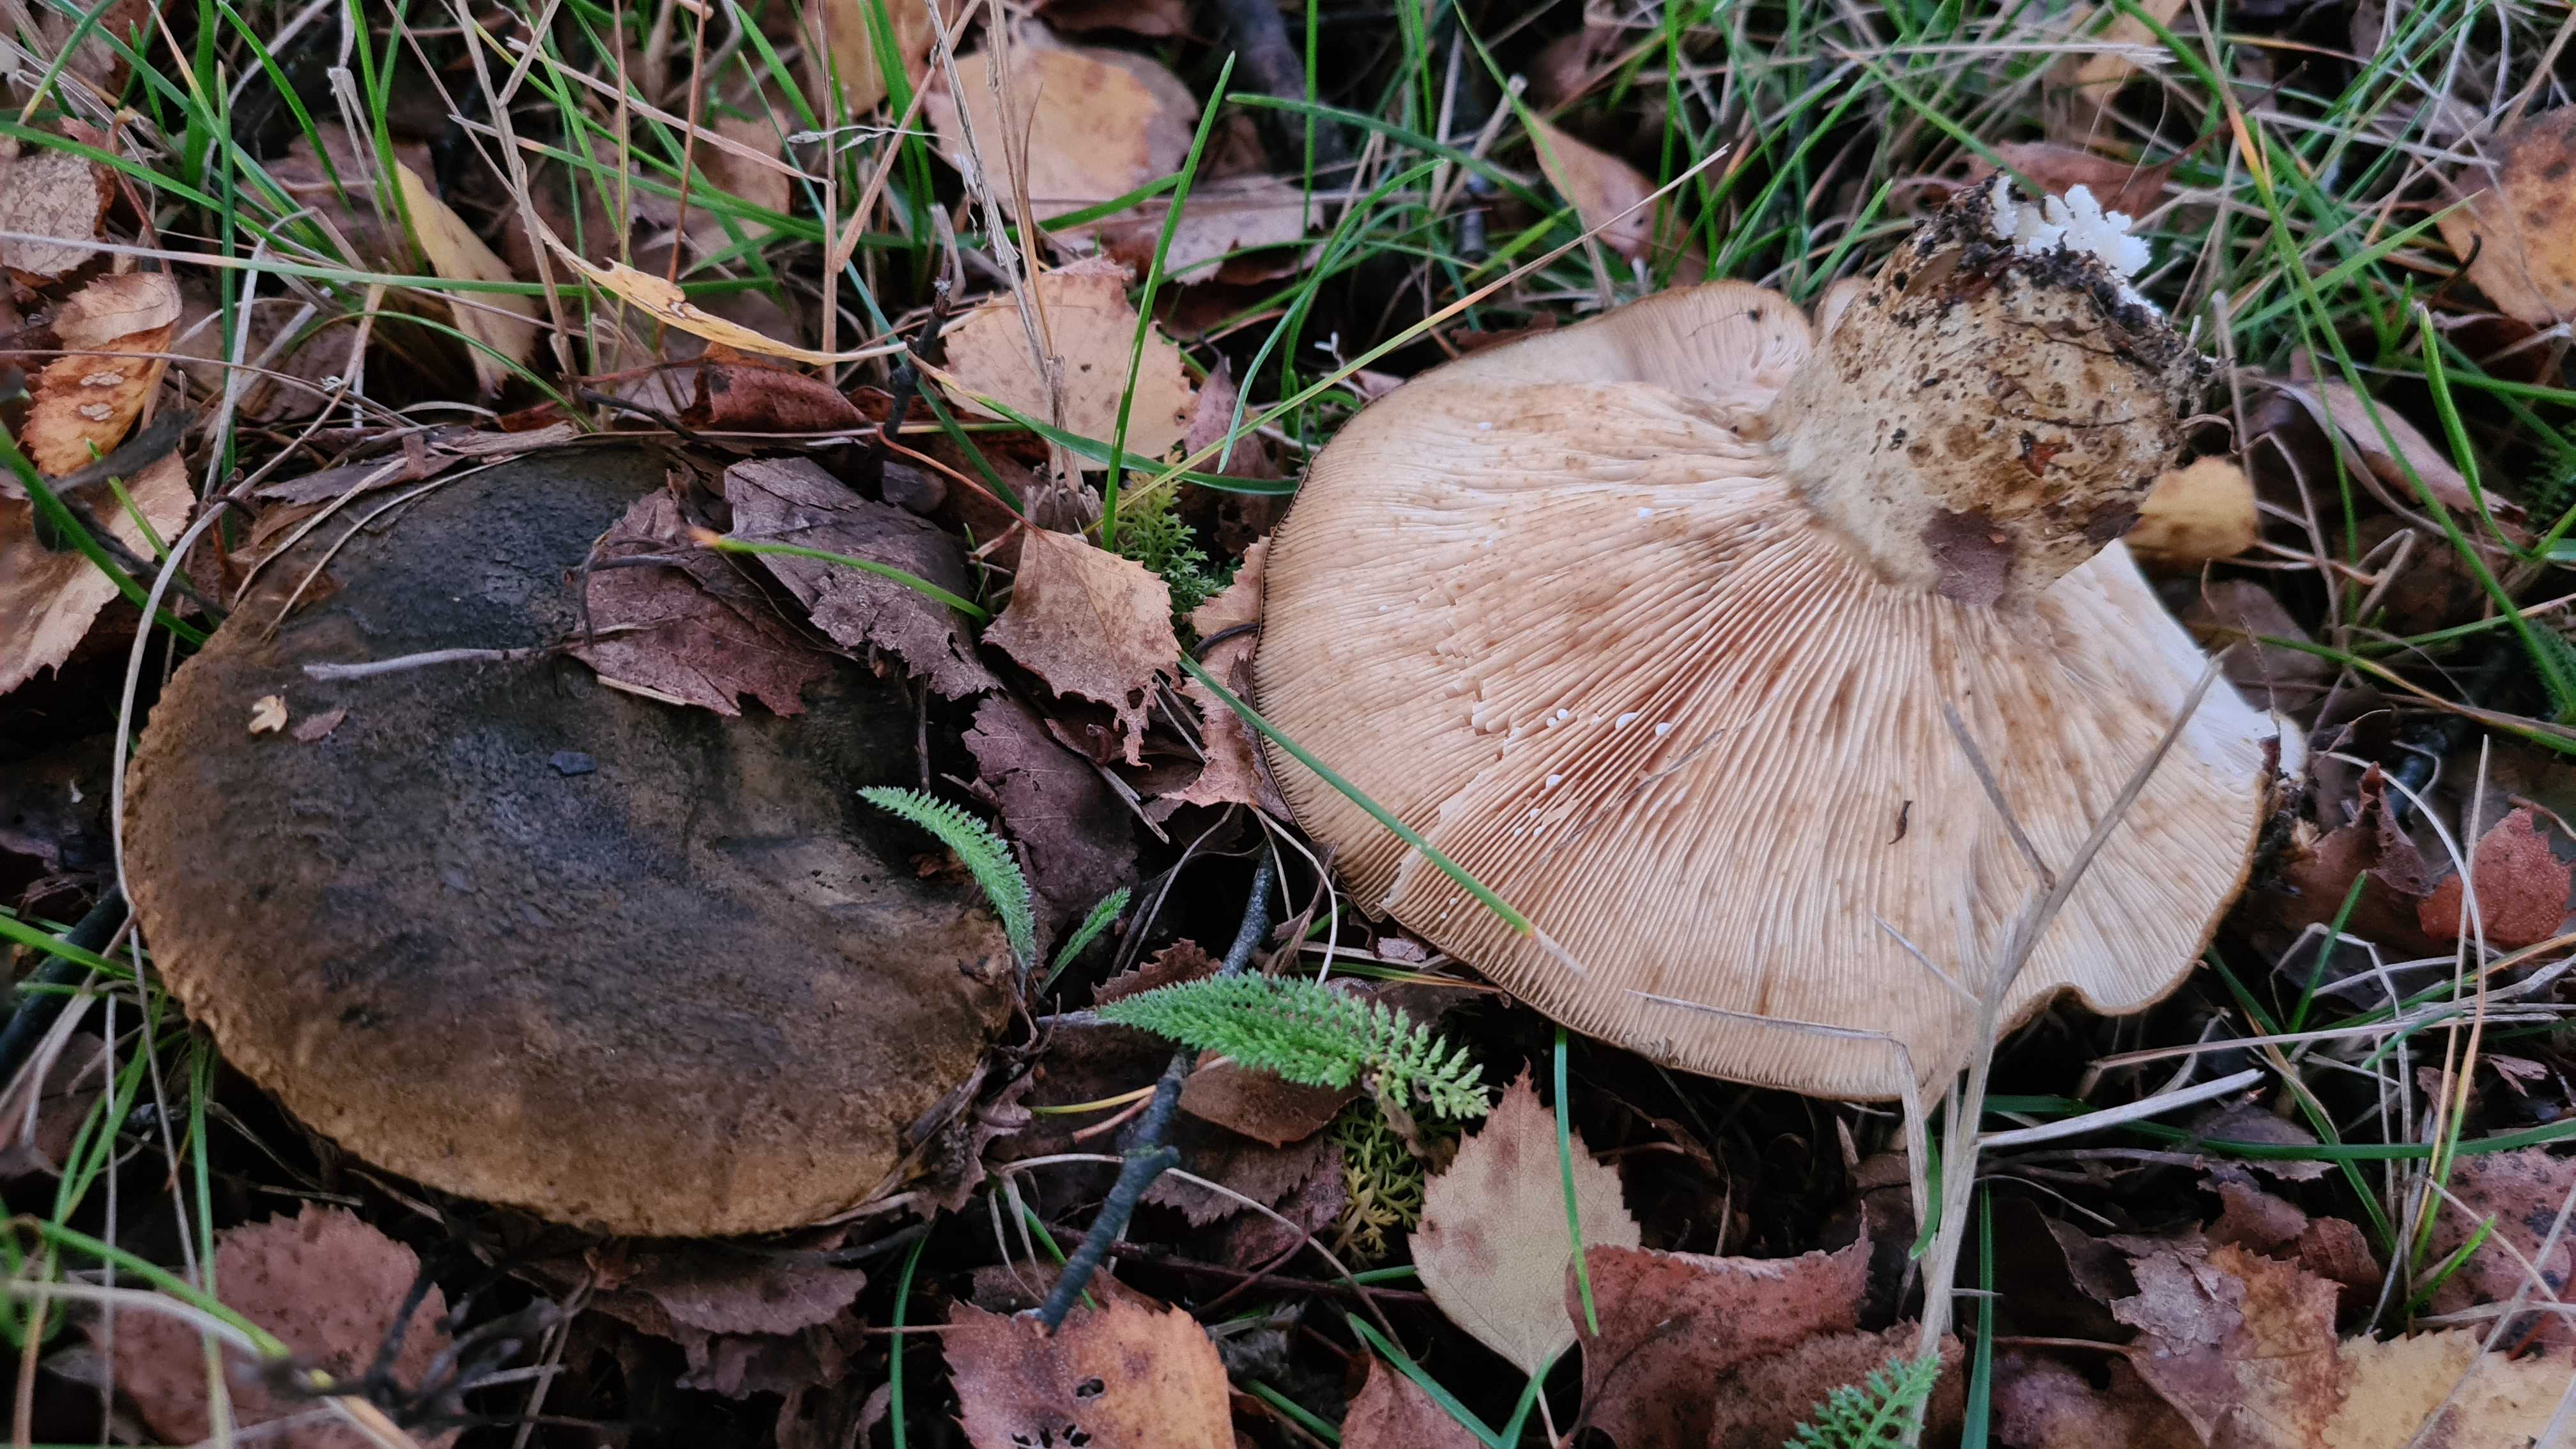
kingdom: Fungi
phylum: Basidiomycota
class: Agaricomycetes
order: Russulales
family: Russulaceae
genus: Lactarius
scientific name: Lactarius necator
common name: manddraber-mælkehat
